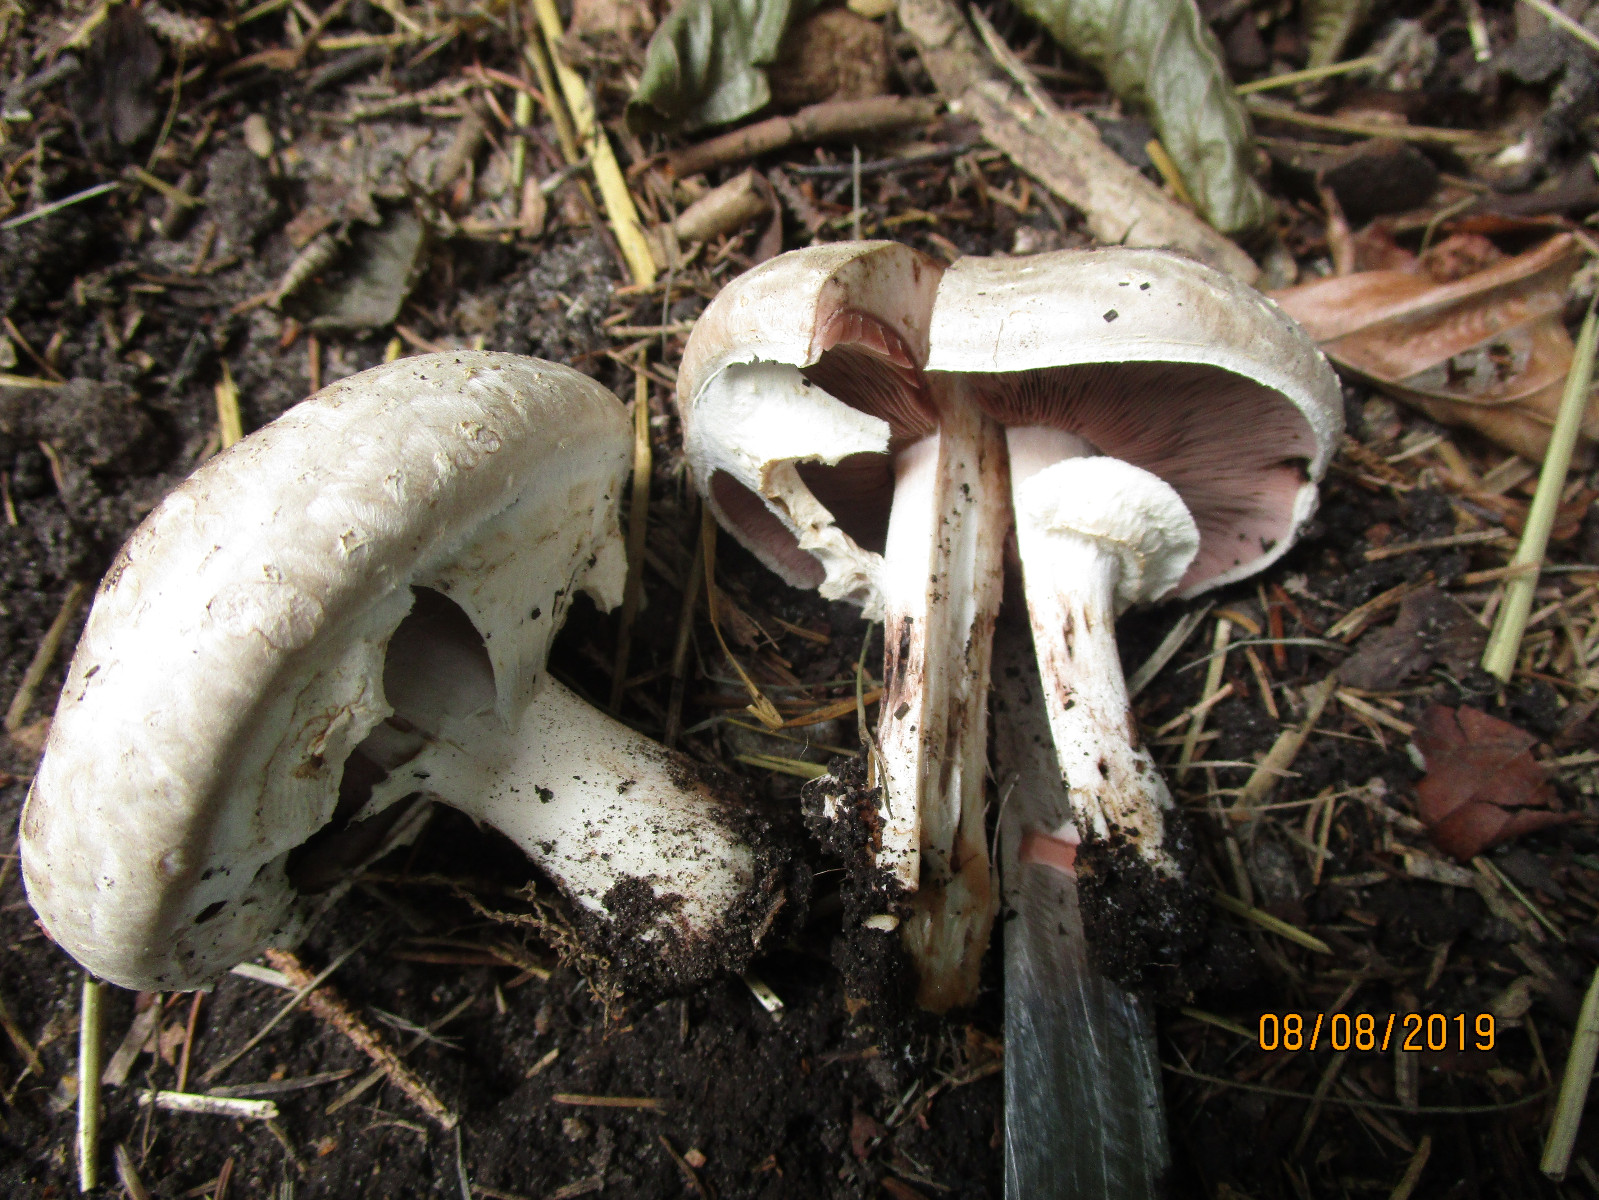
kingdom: Fungi
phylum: Basidiomycota
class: Agaricomycetes
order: Agaricales
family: Agaricaceae
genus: Agaricus
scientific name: Agaricus
